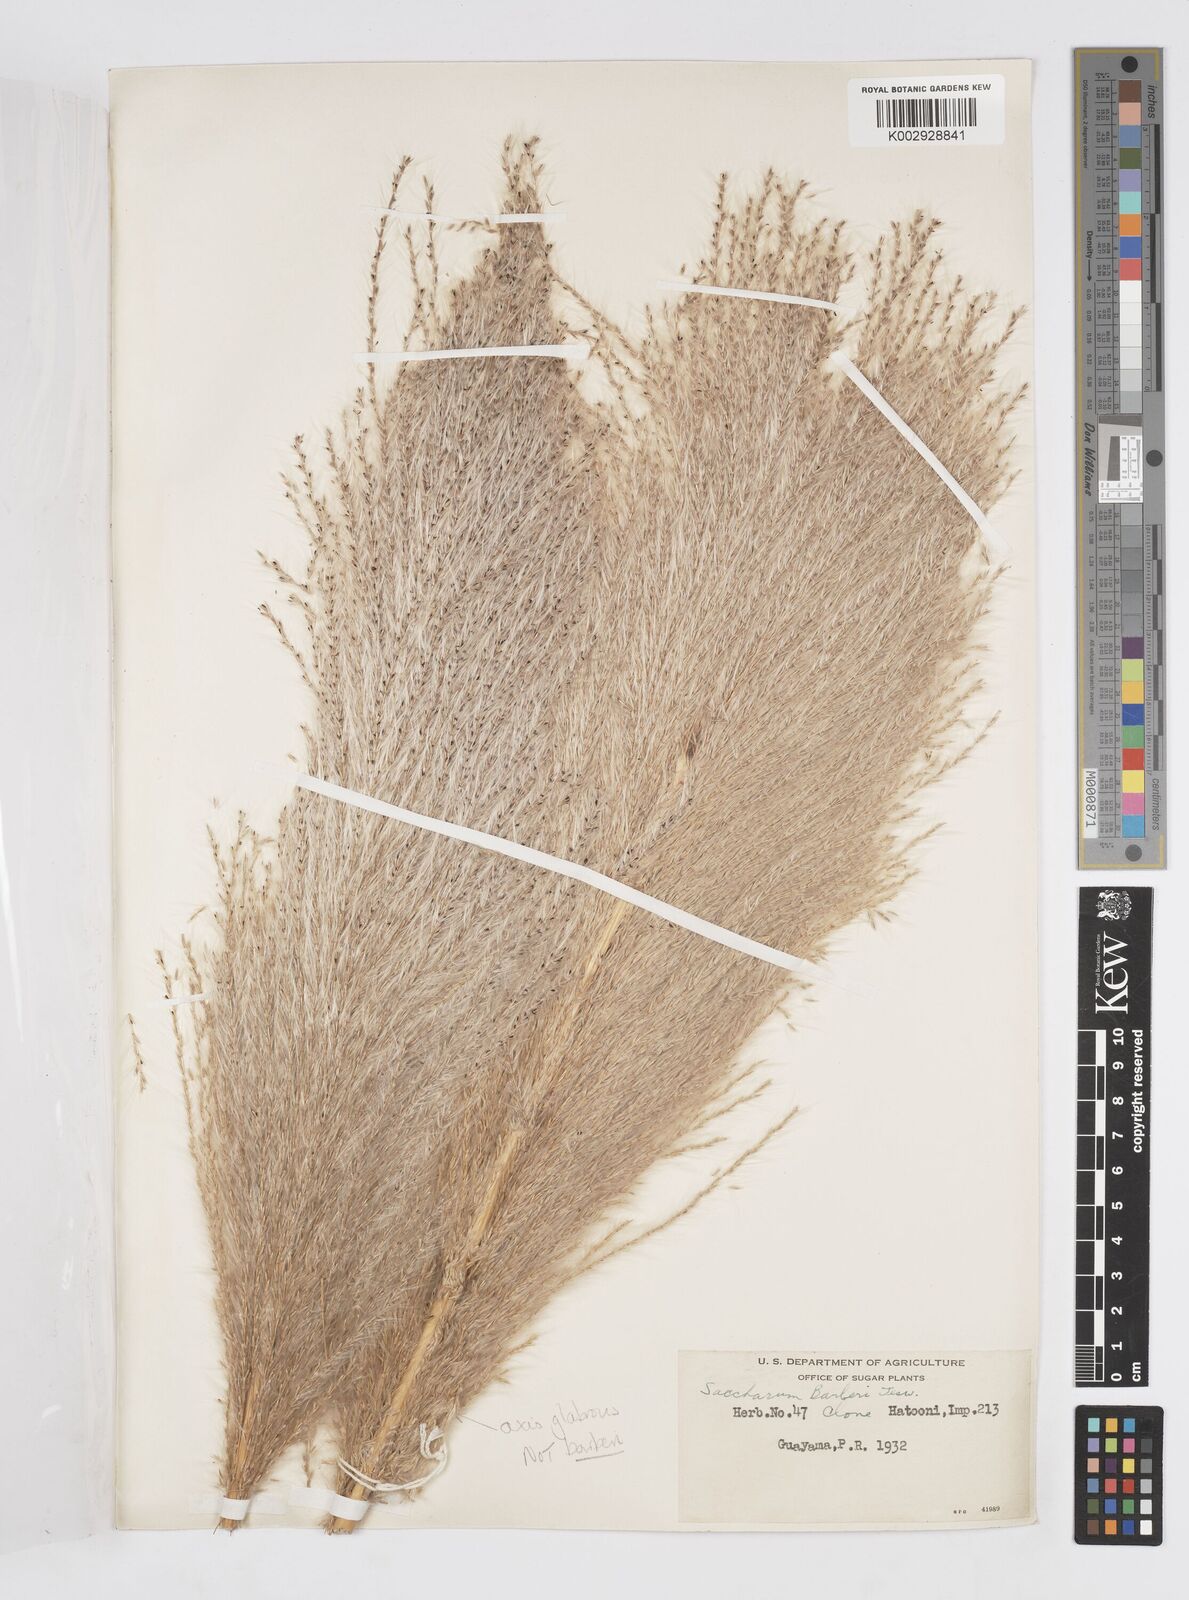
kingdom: Plantae
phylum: Tracheophyta
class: Liliopsida
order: Poales
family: Poaceae
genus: Saccharum
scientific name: Saccharum officinarum
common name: Sugarcane
